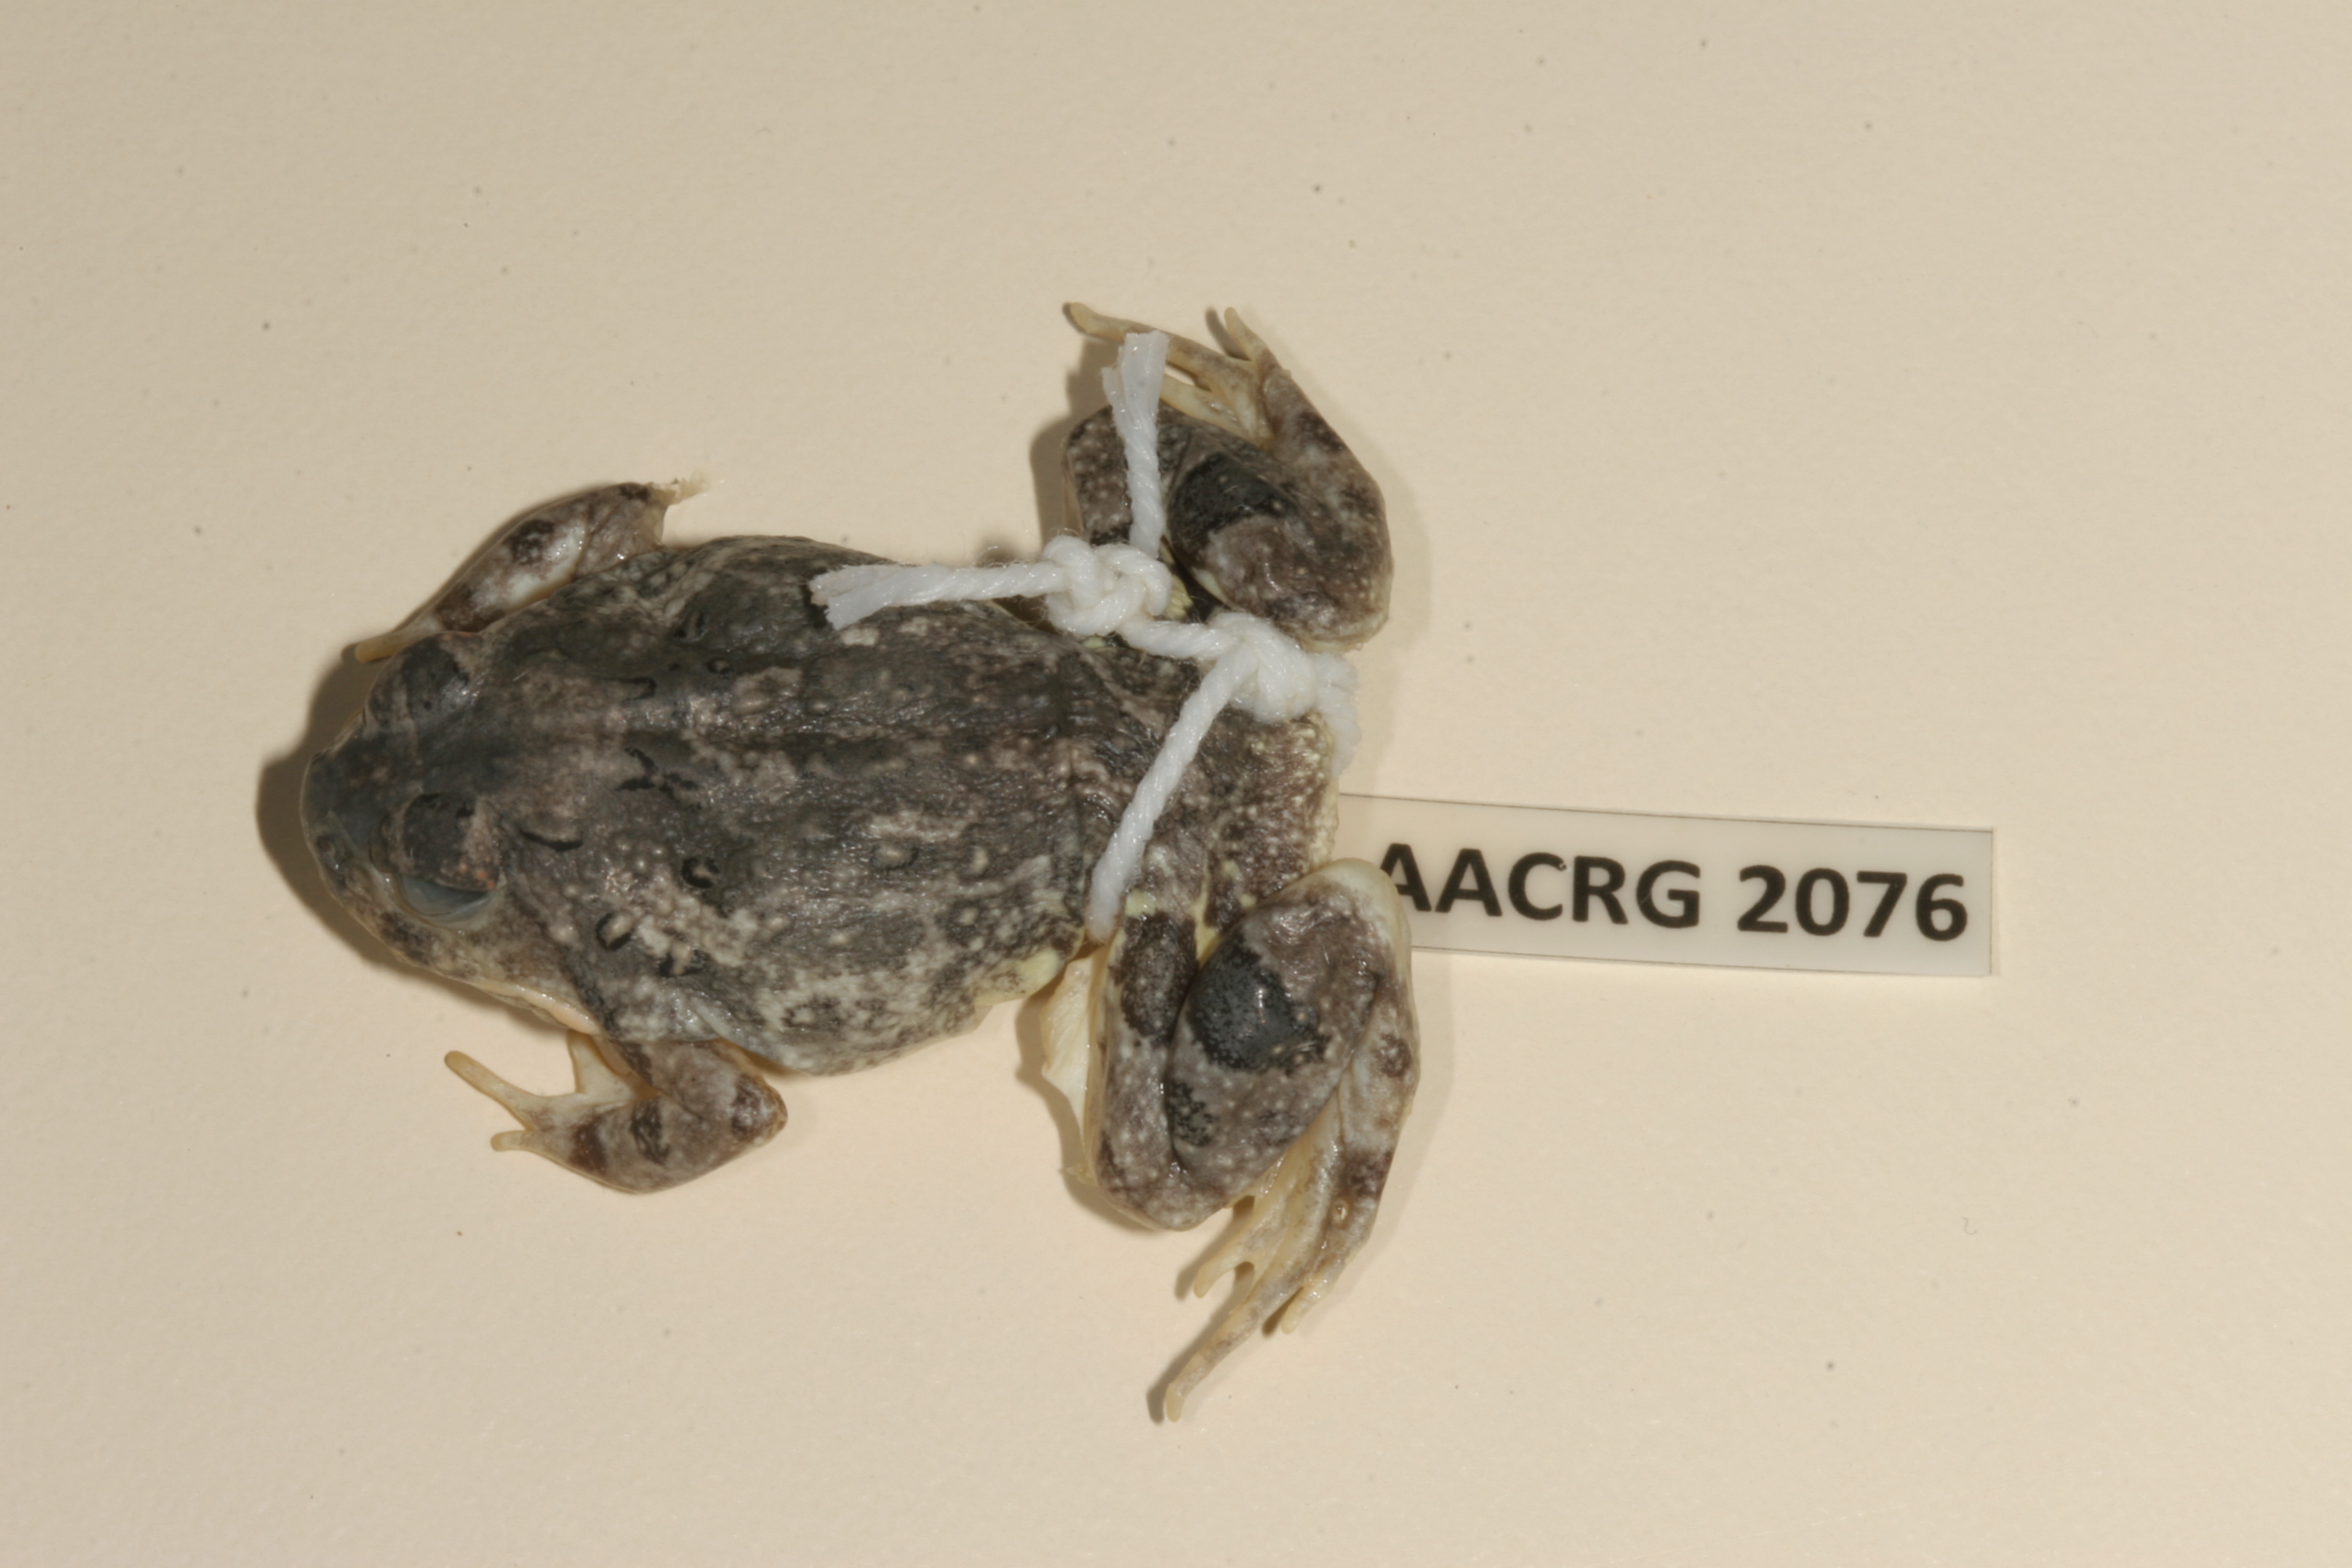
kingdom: Animalia
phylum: Chordata
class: Amphibia
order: Anura
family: Pyxicephalidae
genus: Tomopterna
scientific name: Tomopterna cryptotis
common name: Catequero bullfrog
